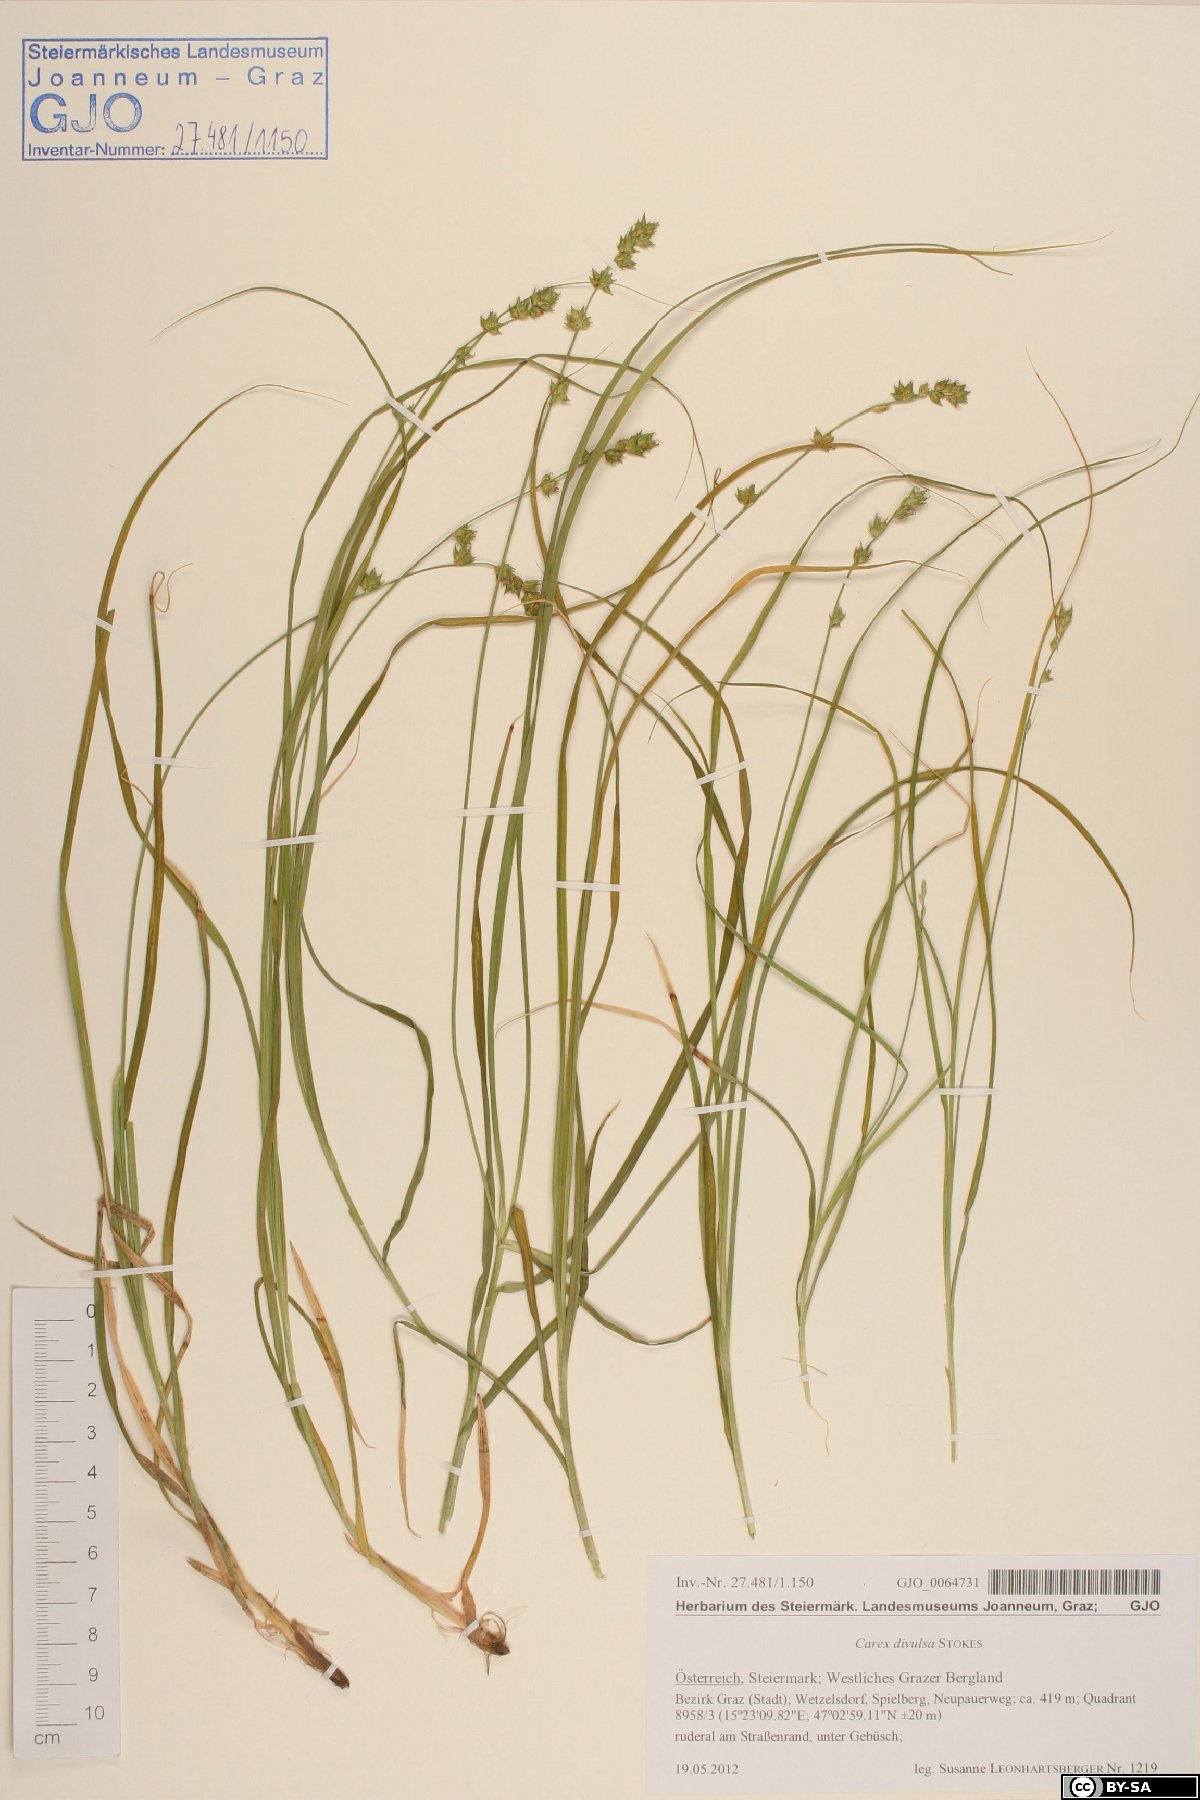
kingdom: Plantae
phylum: Tracheophyta
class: Liliopsida
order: Poales
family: Cyperaceae
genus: Carex
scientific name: Carex divulsa
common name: Grassland sedge
